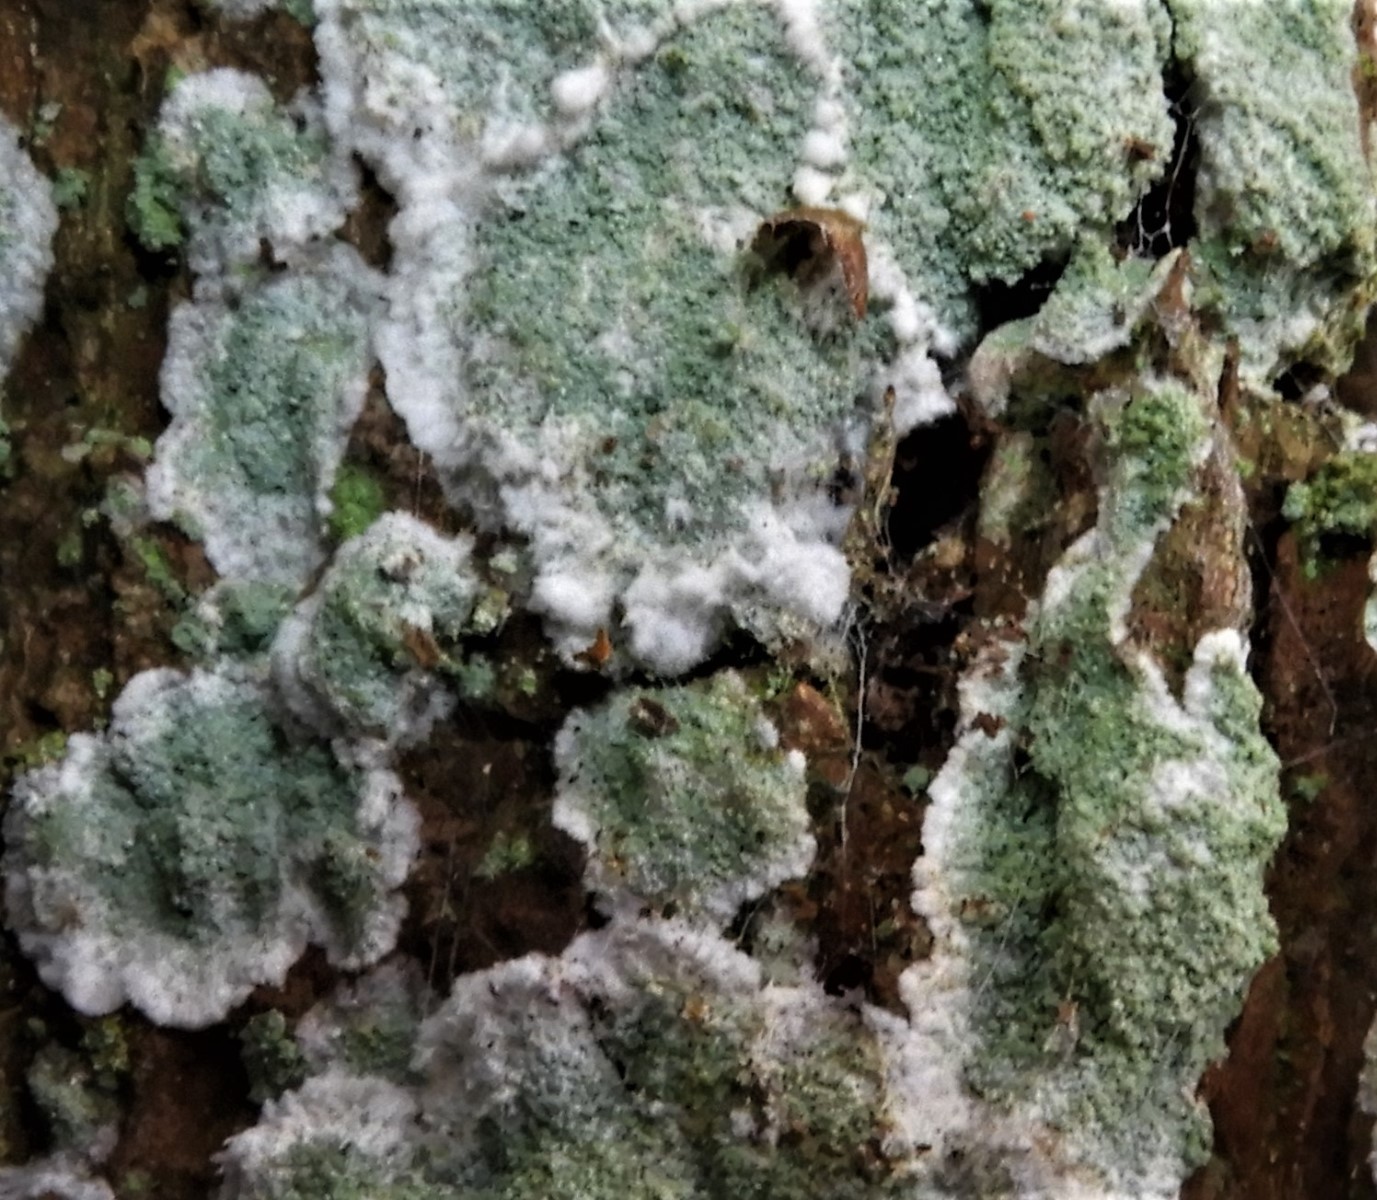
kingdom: Fungi
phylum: Ascomycota
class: Lecanoromycetes
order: Lecanorales
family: Haematommataceae
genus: Haematomma
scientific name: Haematomma ochroleucum
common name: gul trådkantlav
